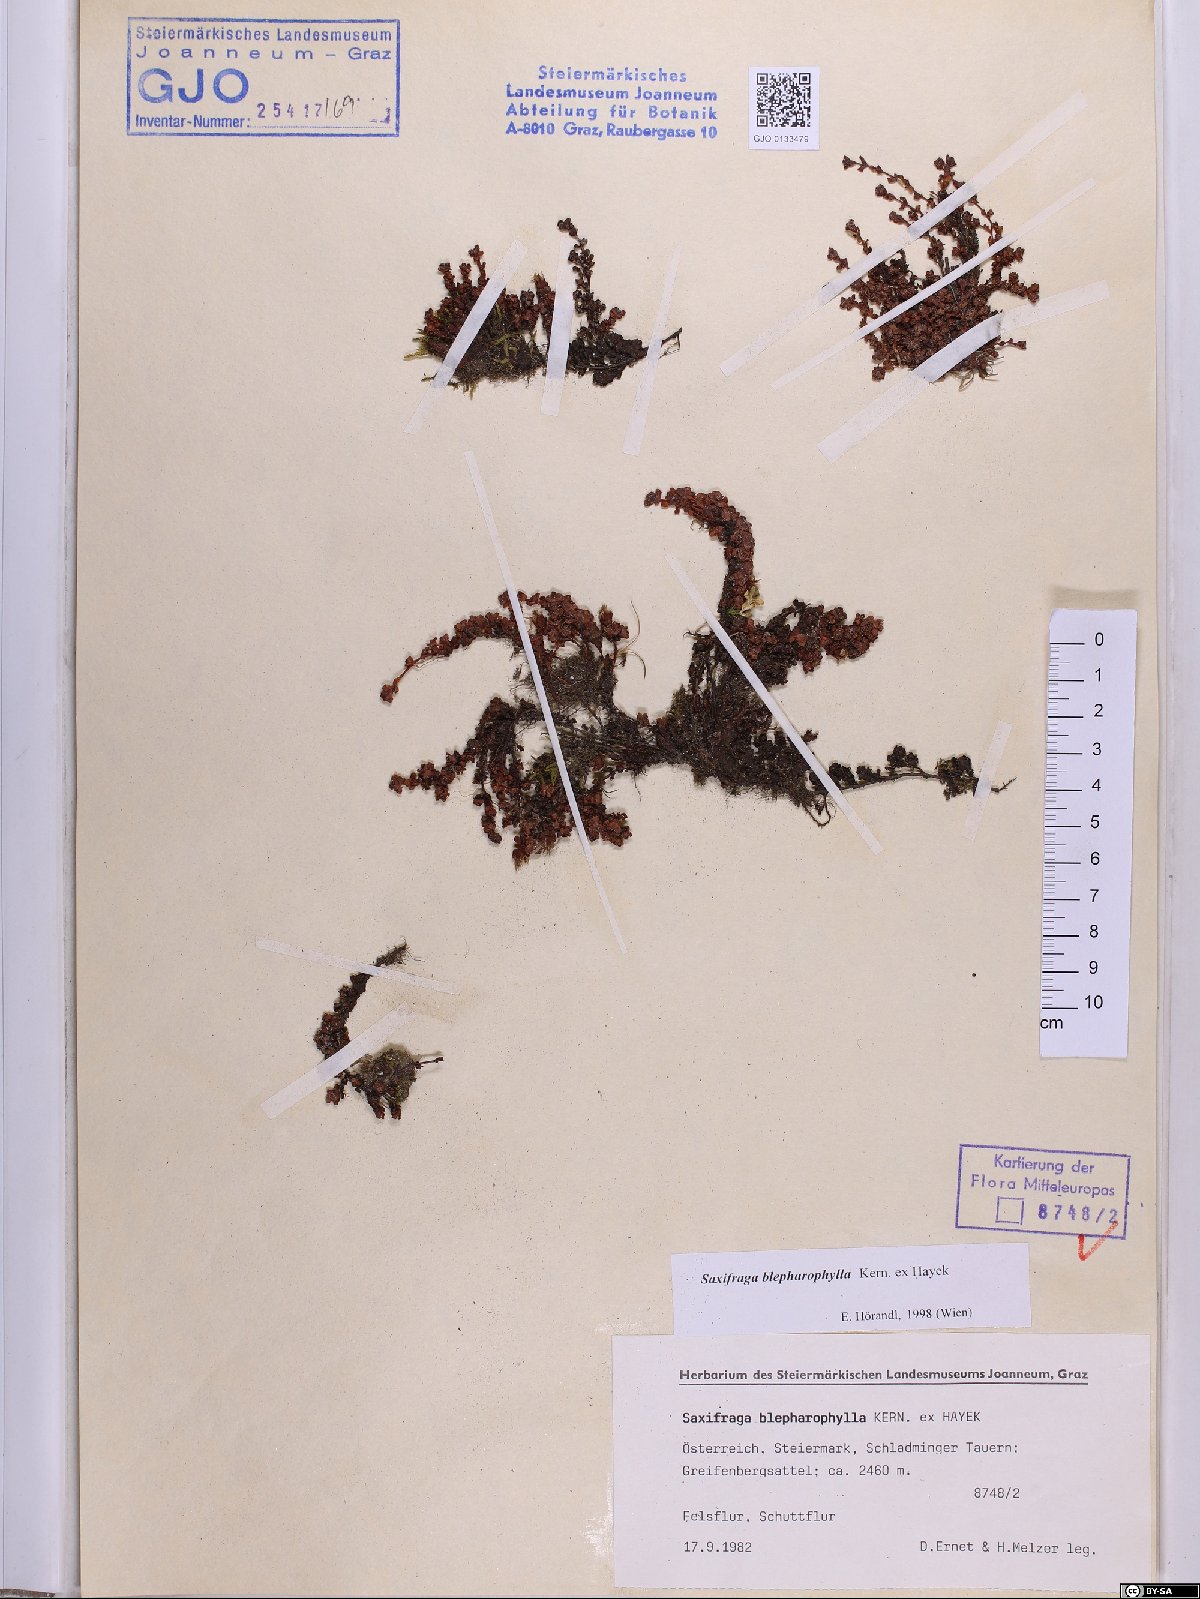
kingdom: Plantae
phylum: Tracheophyta
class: Magnoliopsida
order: Saxifragales
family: Saxifragaceae
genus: Saxifraga
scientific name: Saxifraga oppositifolia
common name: Purple saxifrage
